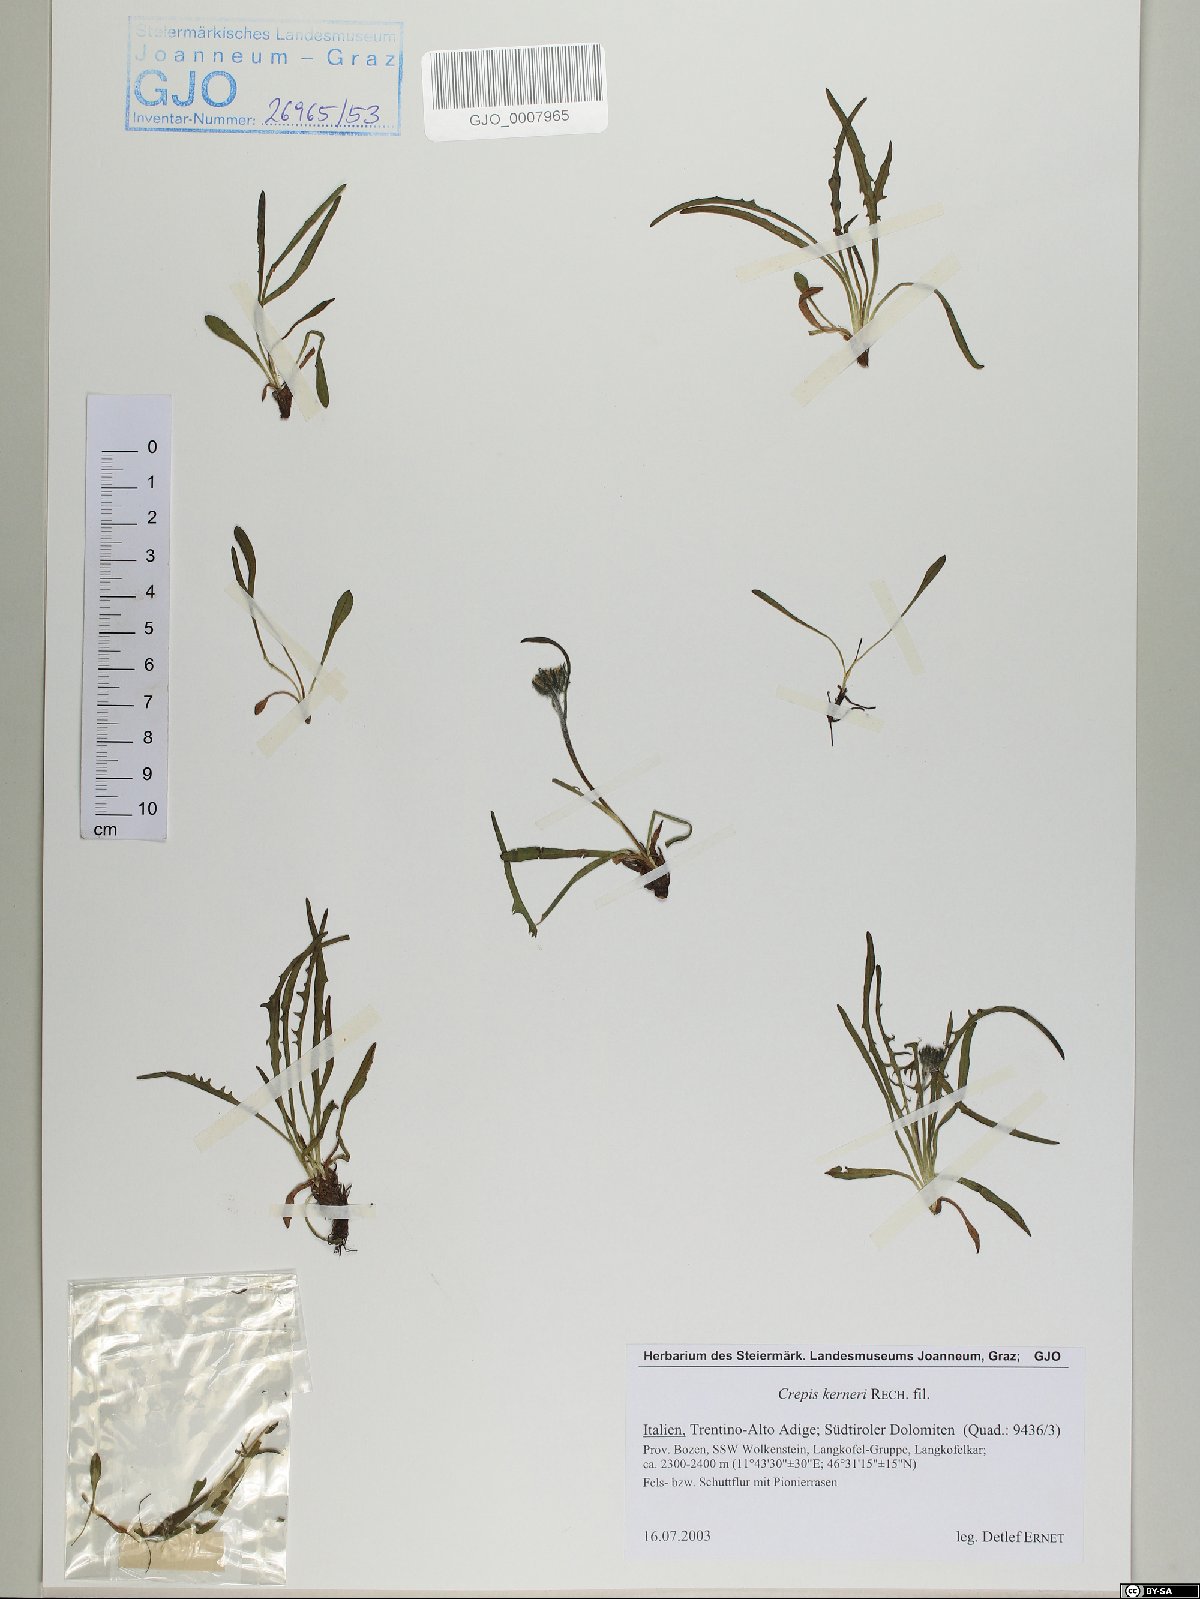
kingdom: Plantae
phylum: Tracheophyta
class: Magnoliopsida
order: Asterales
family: Asteraceae
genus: Crepis
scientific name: Crepis jacquinii
